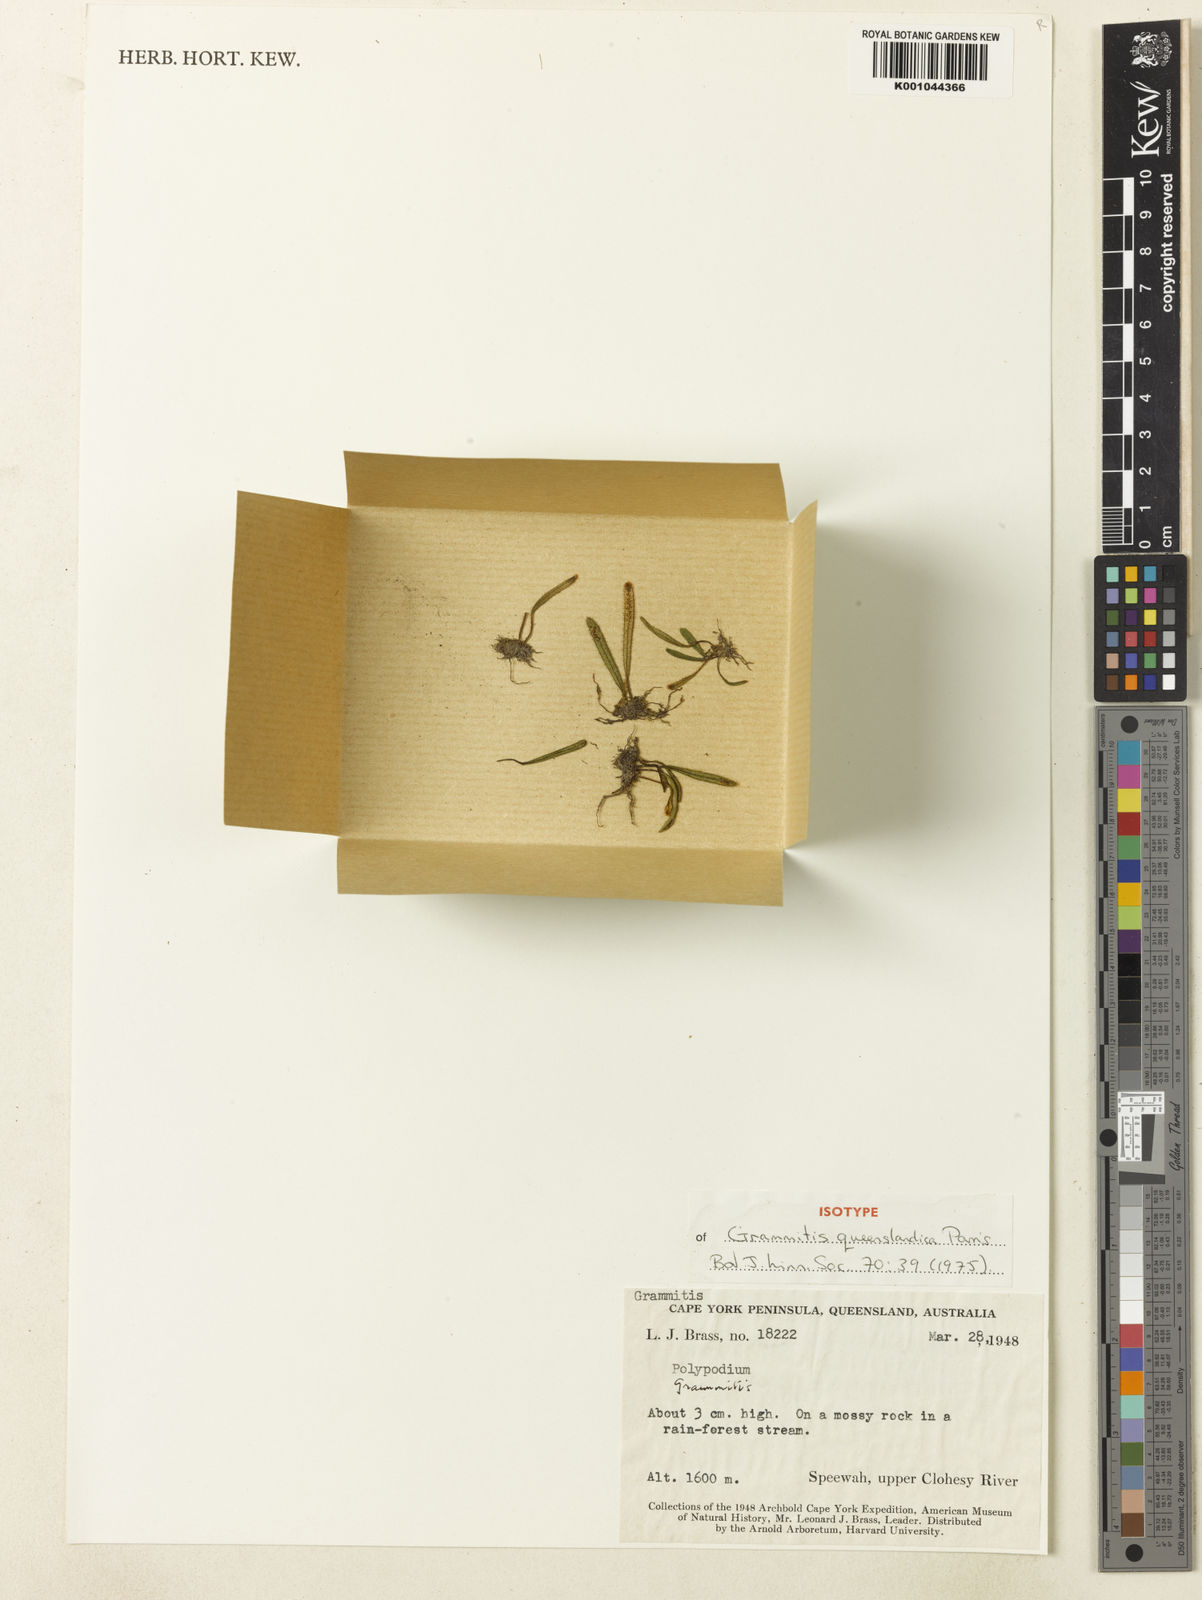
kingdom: Plantae
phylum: Tracheophyta
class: Polypodiopsida
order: Polypodiales
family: Polypodiaceae
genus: Oreogrammitis
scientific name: Oreogrammitis queenslandica
